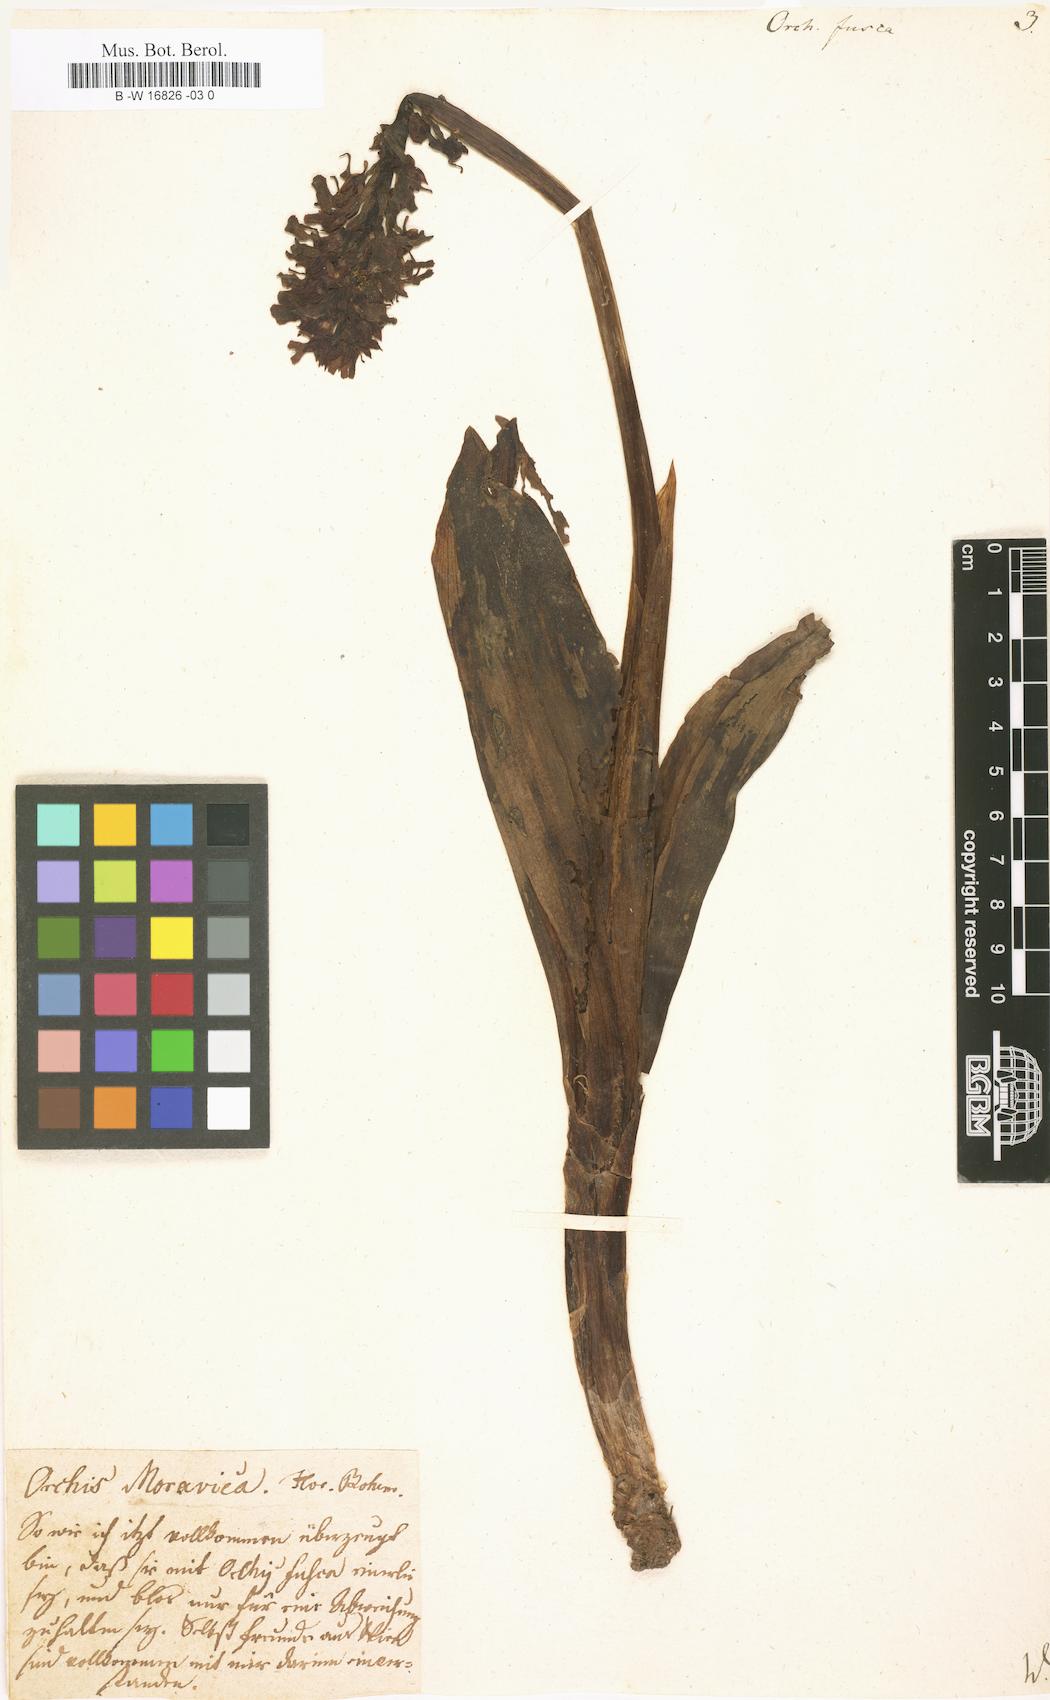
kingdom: Plantae
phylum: Tracheophyta
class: Liliopsida
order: Asparagales
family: Orchidaceae
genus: Orchis
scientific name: Orchis purpurea
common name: Lady orchid
